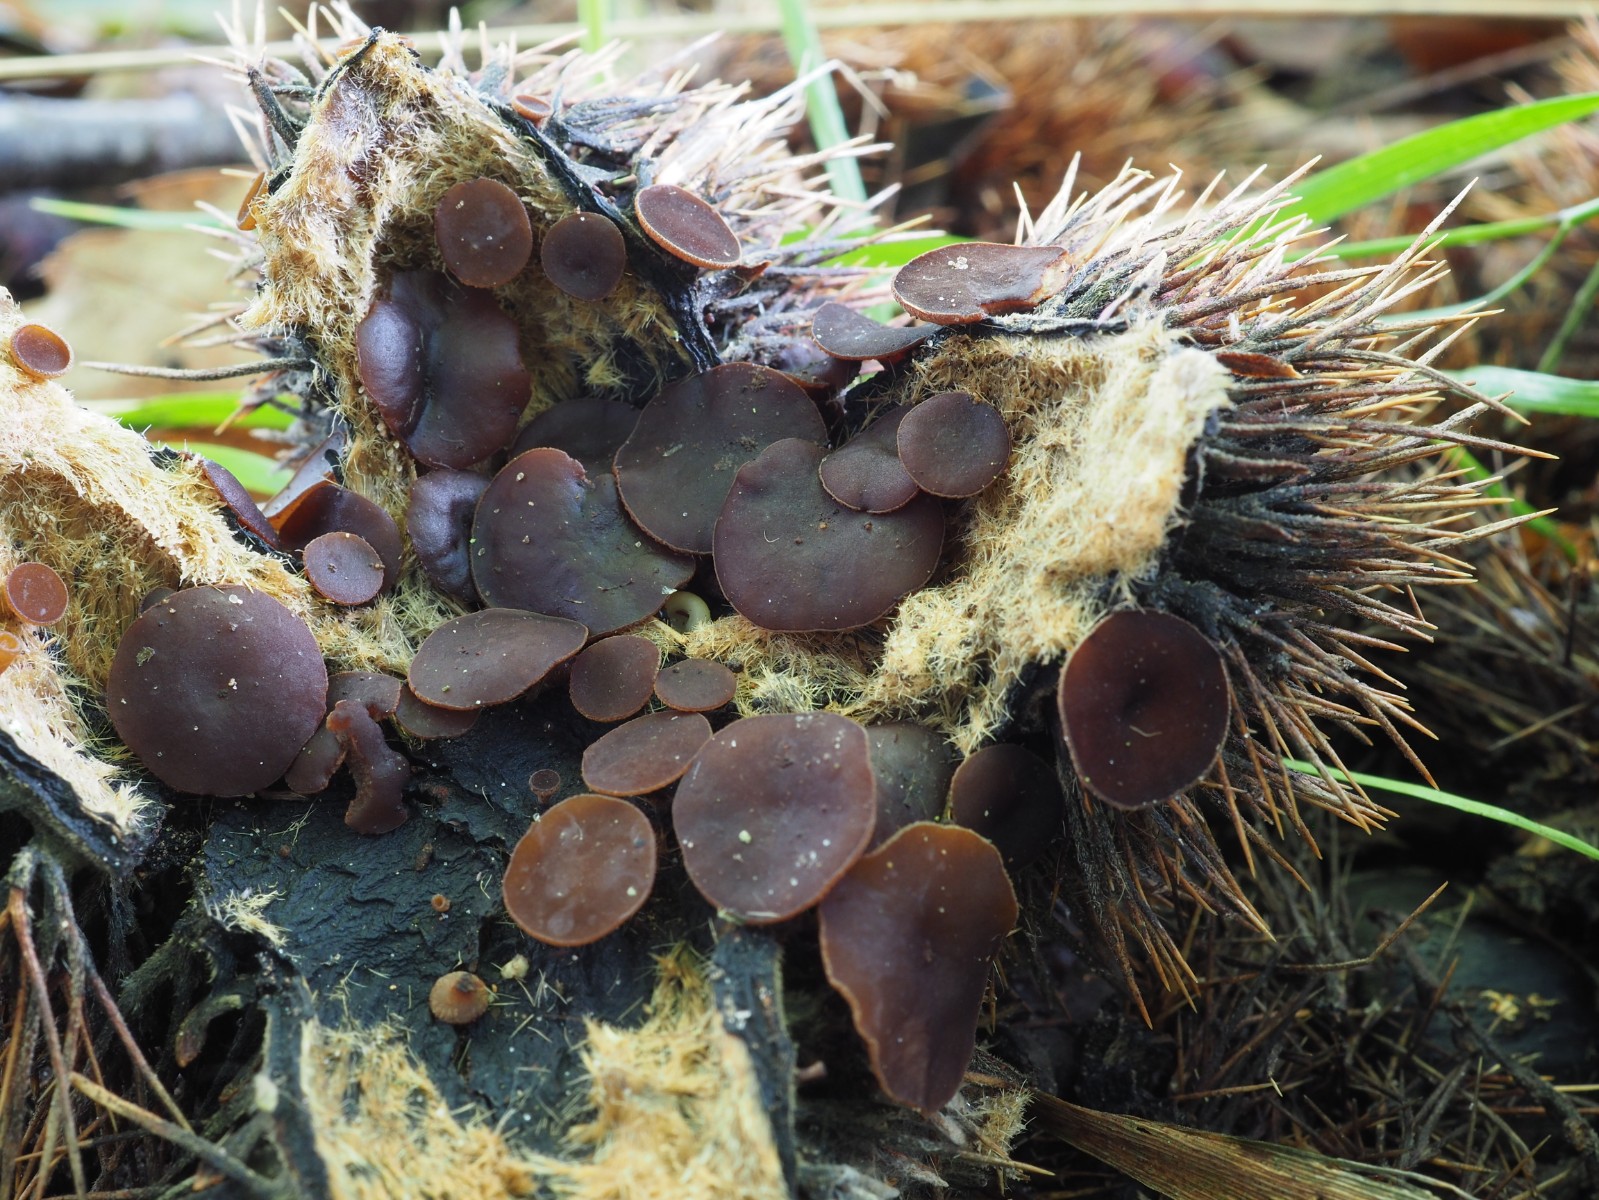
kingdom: Fungi
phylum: Ascomycota
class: Leotiomycetes
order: Helotiales
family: Rutstroemiaceae
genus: Lanzia
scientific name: Lanzia echinophila
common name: kastanie-brunskive
